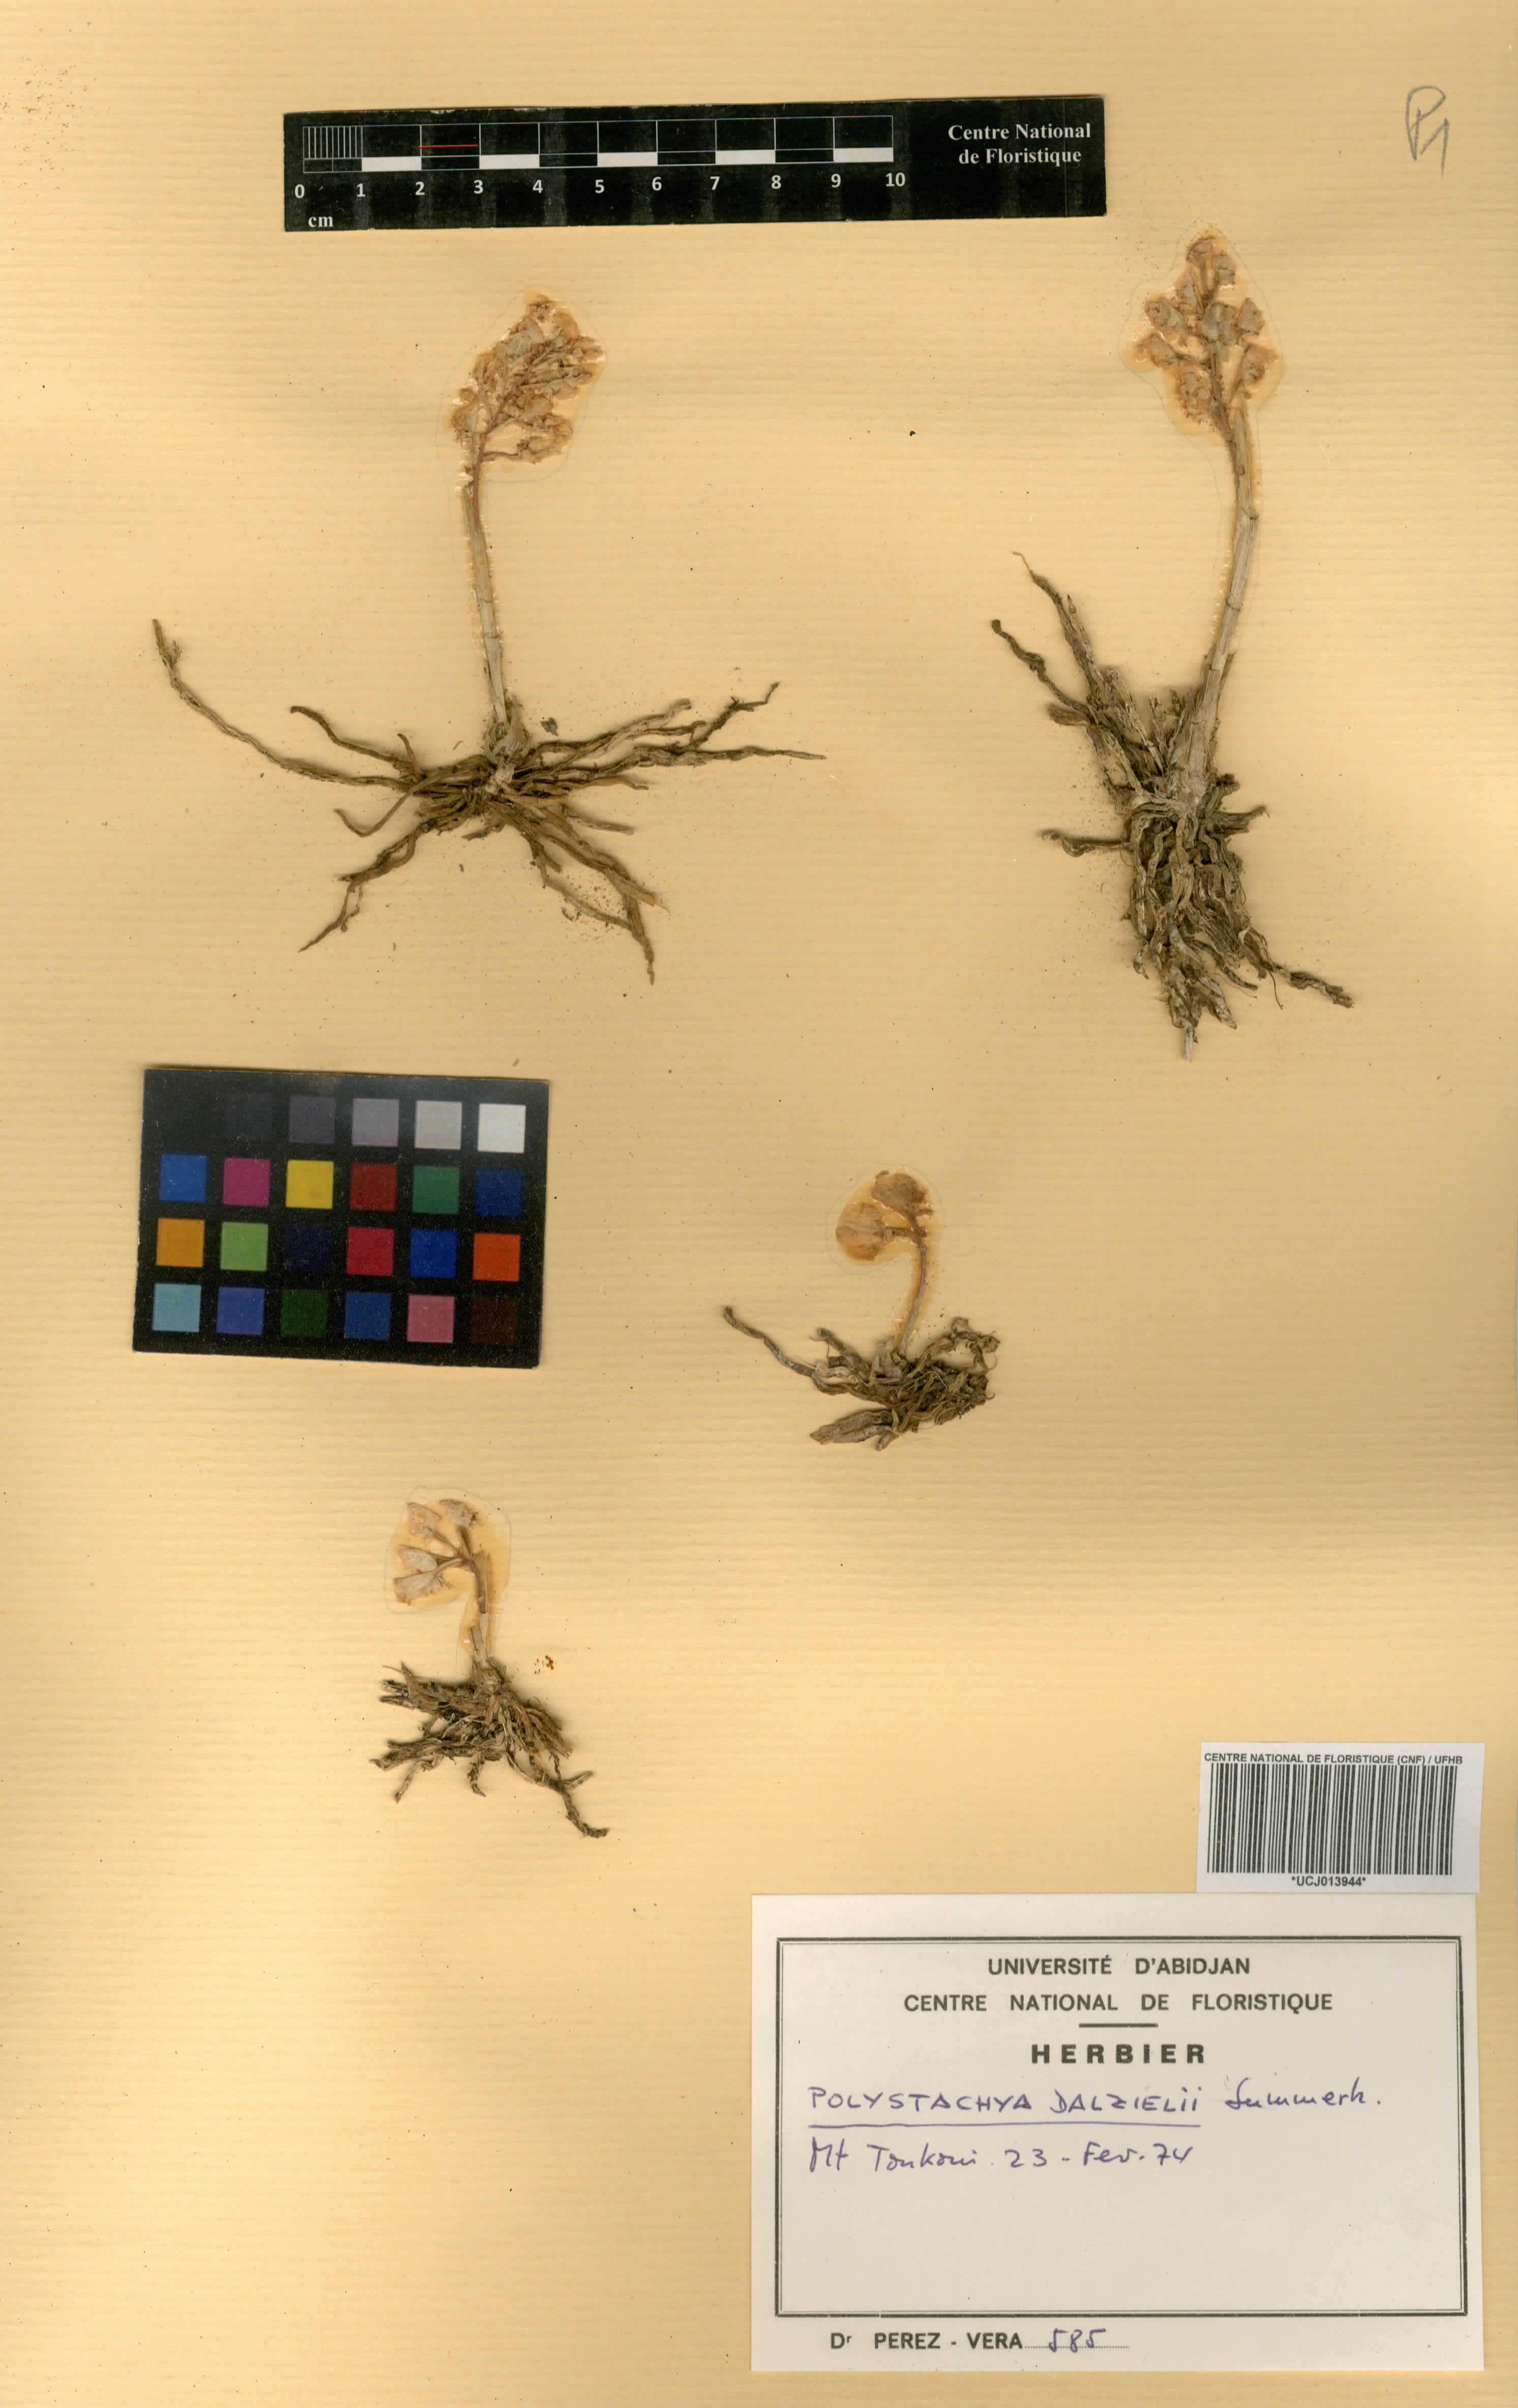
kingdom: Plantae
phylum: Tracheophyta
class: Liliopsida
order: Asparagales
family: Orchidaceae
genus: Polystachya
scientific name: Polystachya dalzielii
